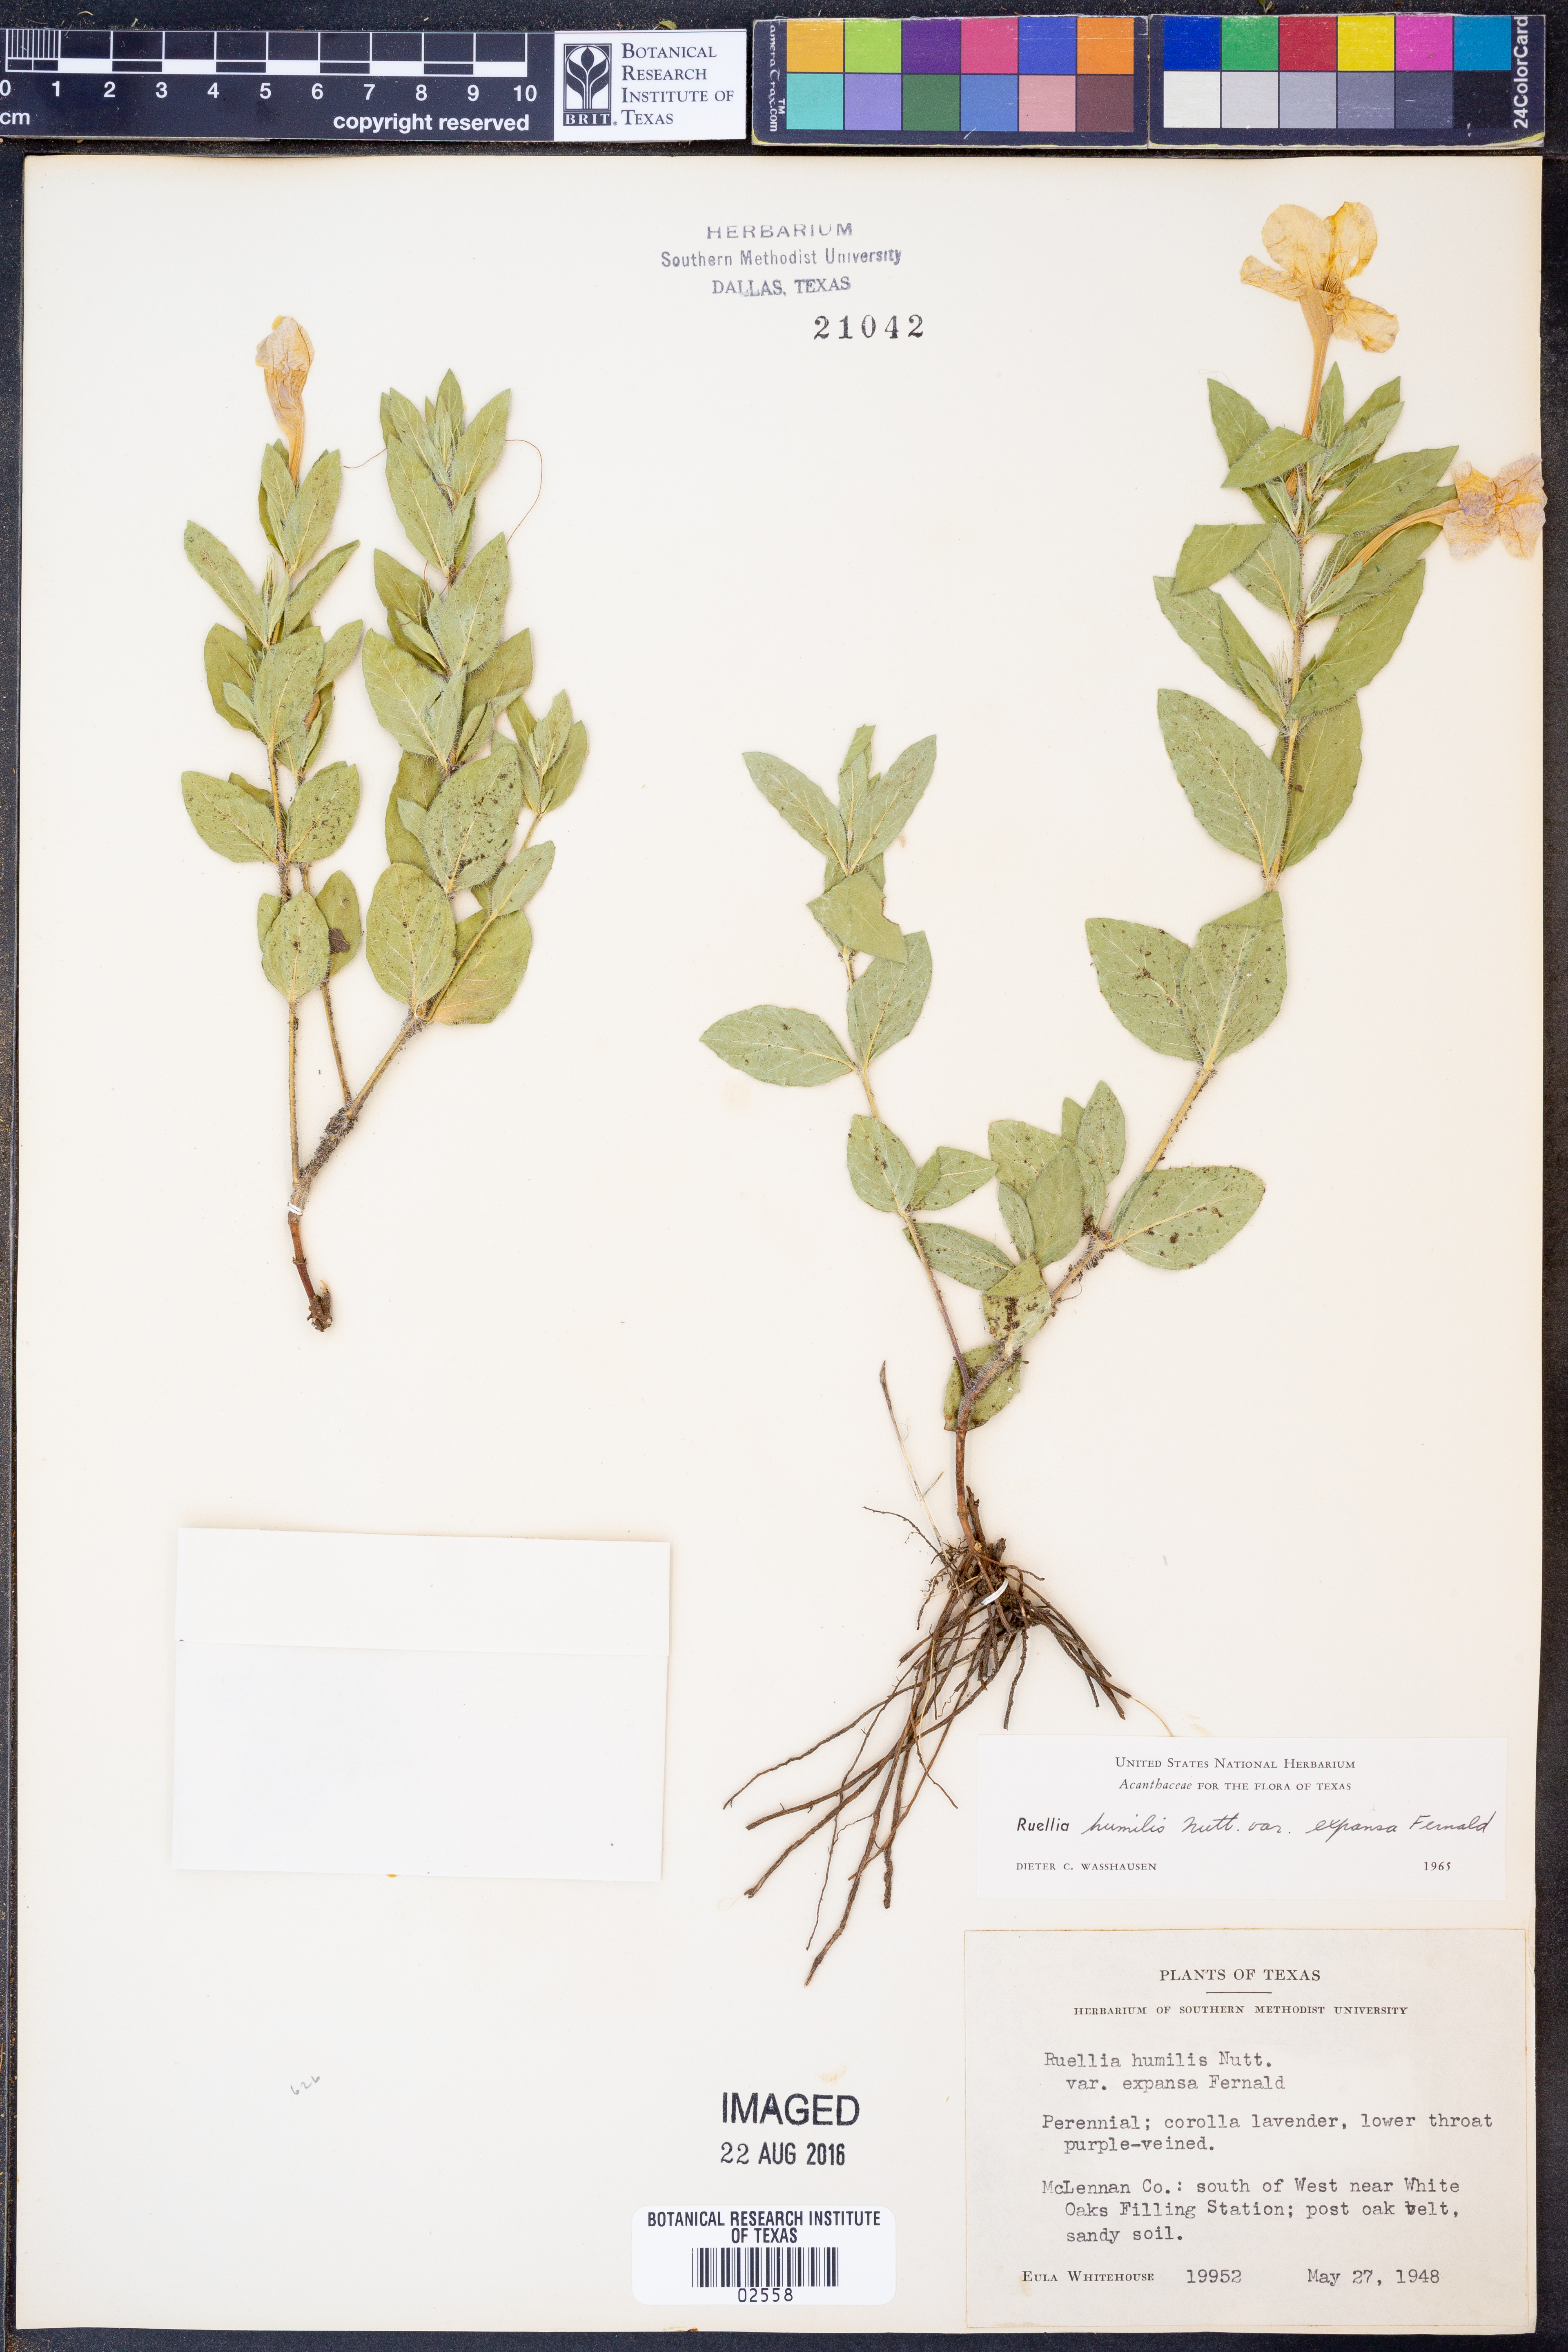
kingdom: Plantae
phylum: Tracheophyta
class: Magnoliopsida
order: Lamiales
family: Acanthaceae
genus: Ruellia
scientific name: Ruellia humilis
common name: Fringe-leaf ruellia
